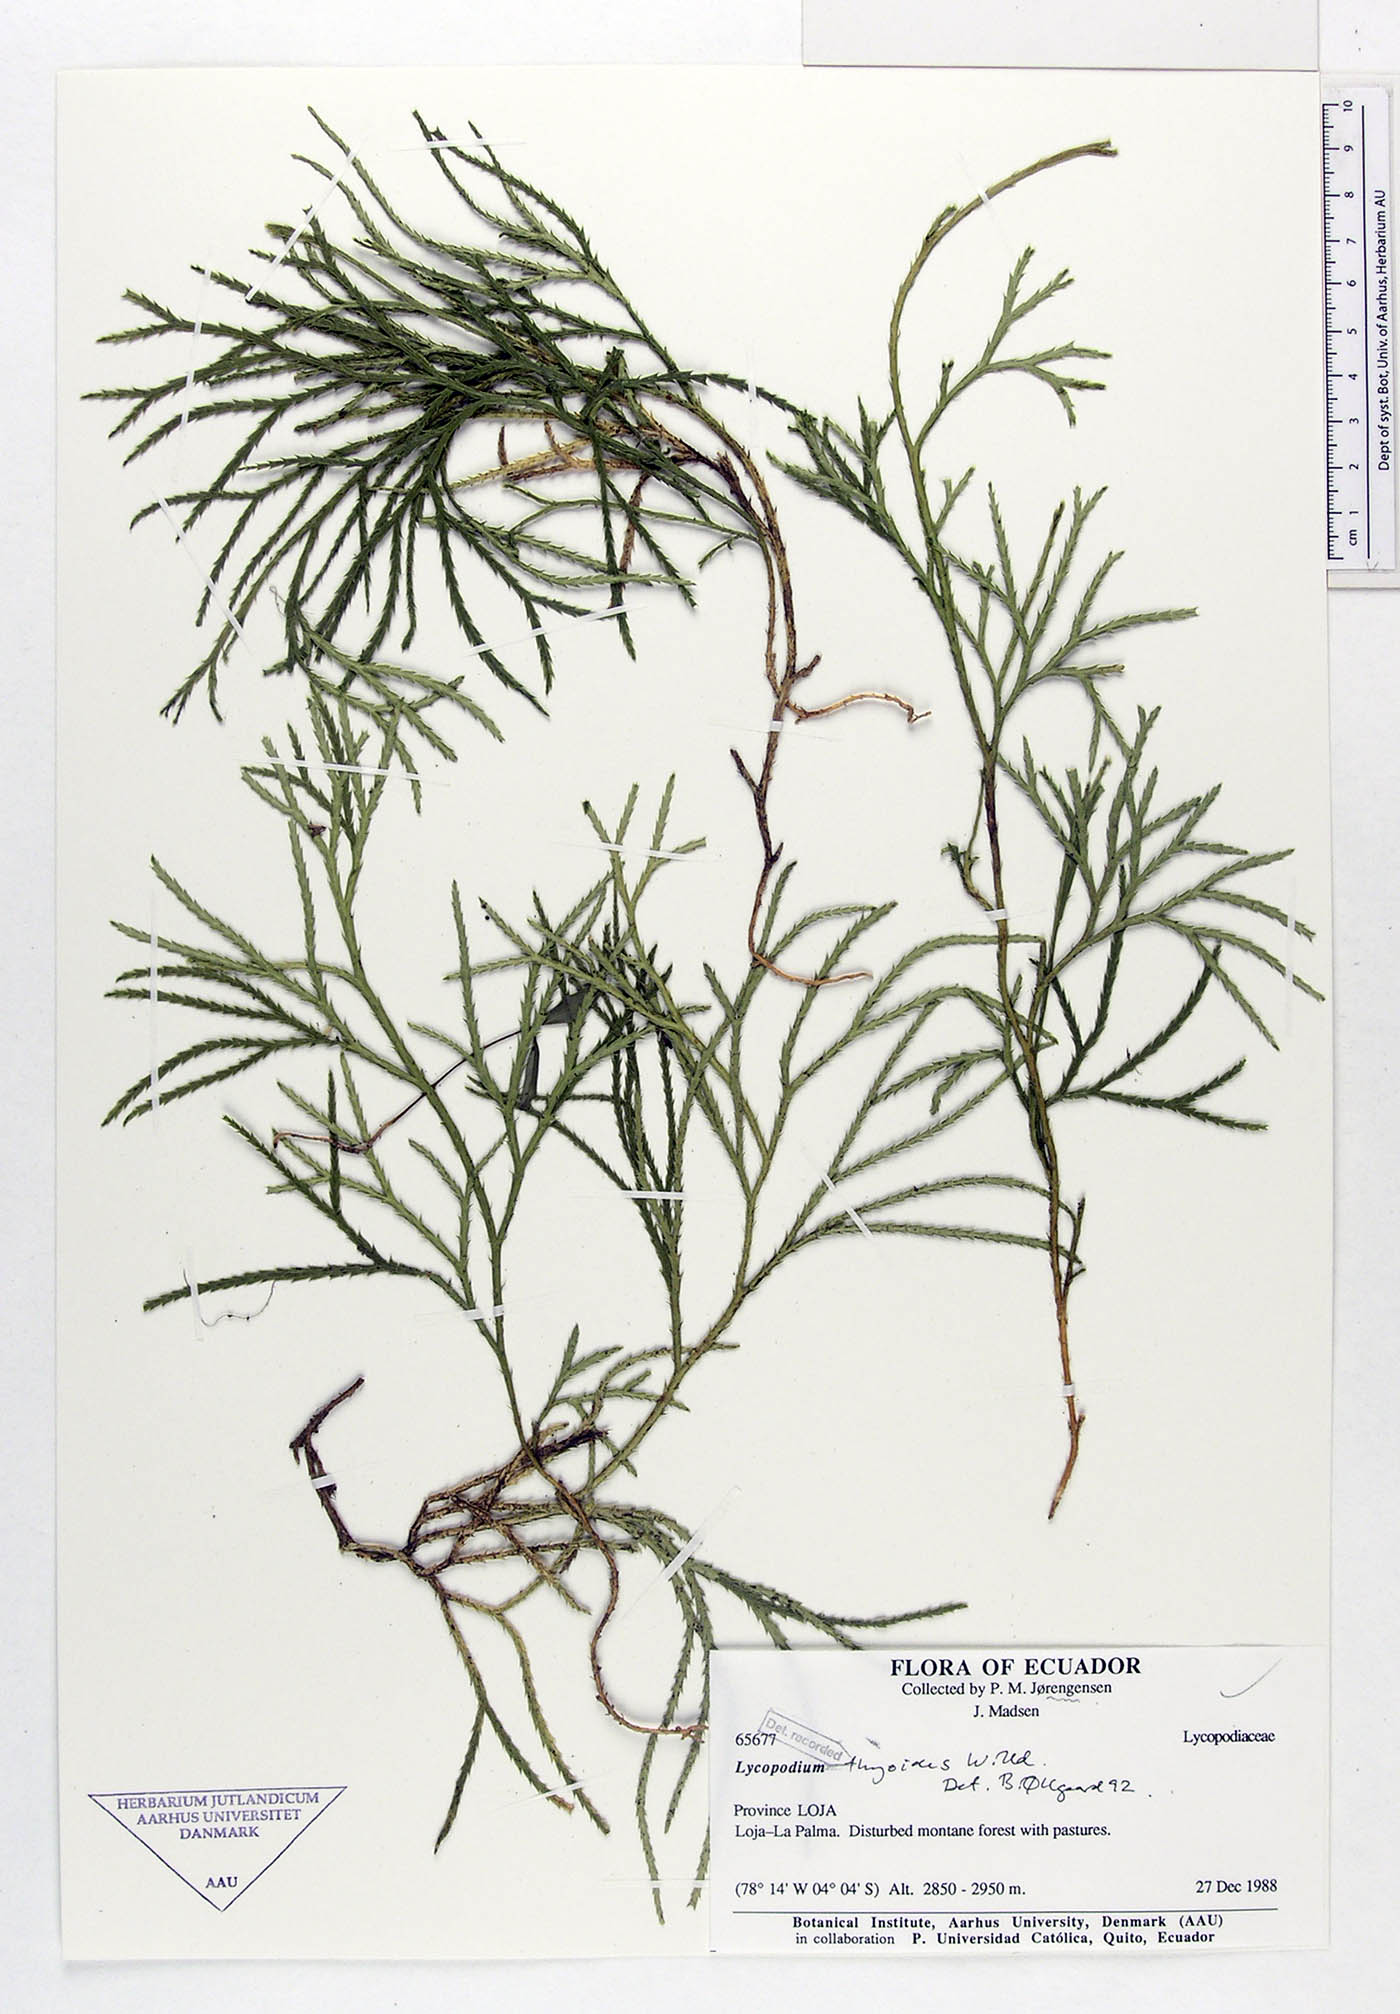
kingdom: Plantae
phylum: Tracheophyta
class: Lycopodiopsida
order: Lycopodiales
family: Lycopodiaceae
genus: Diphasiastrum
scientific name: Diphasiastrum thyoides
